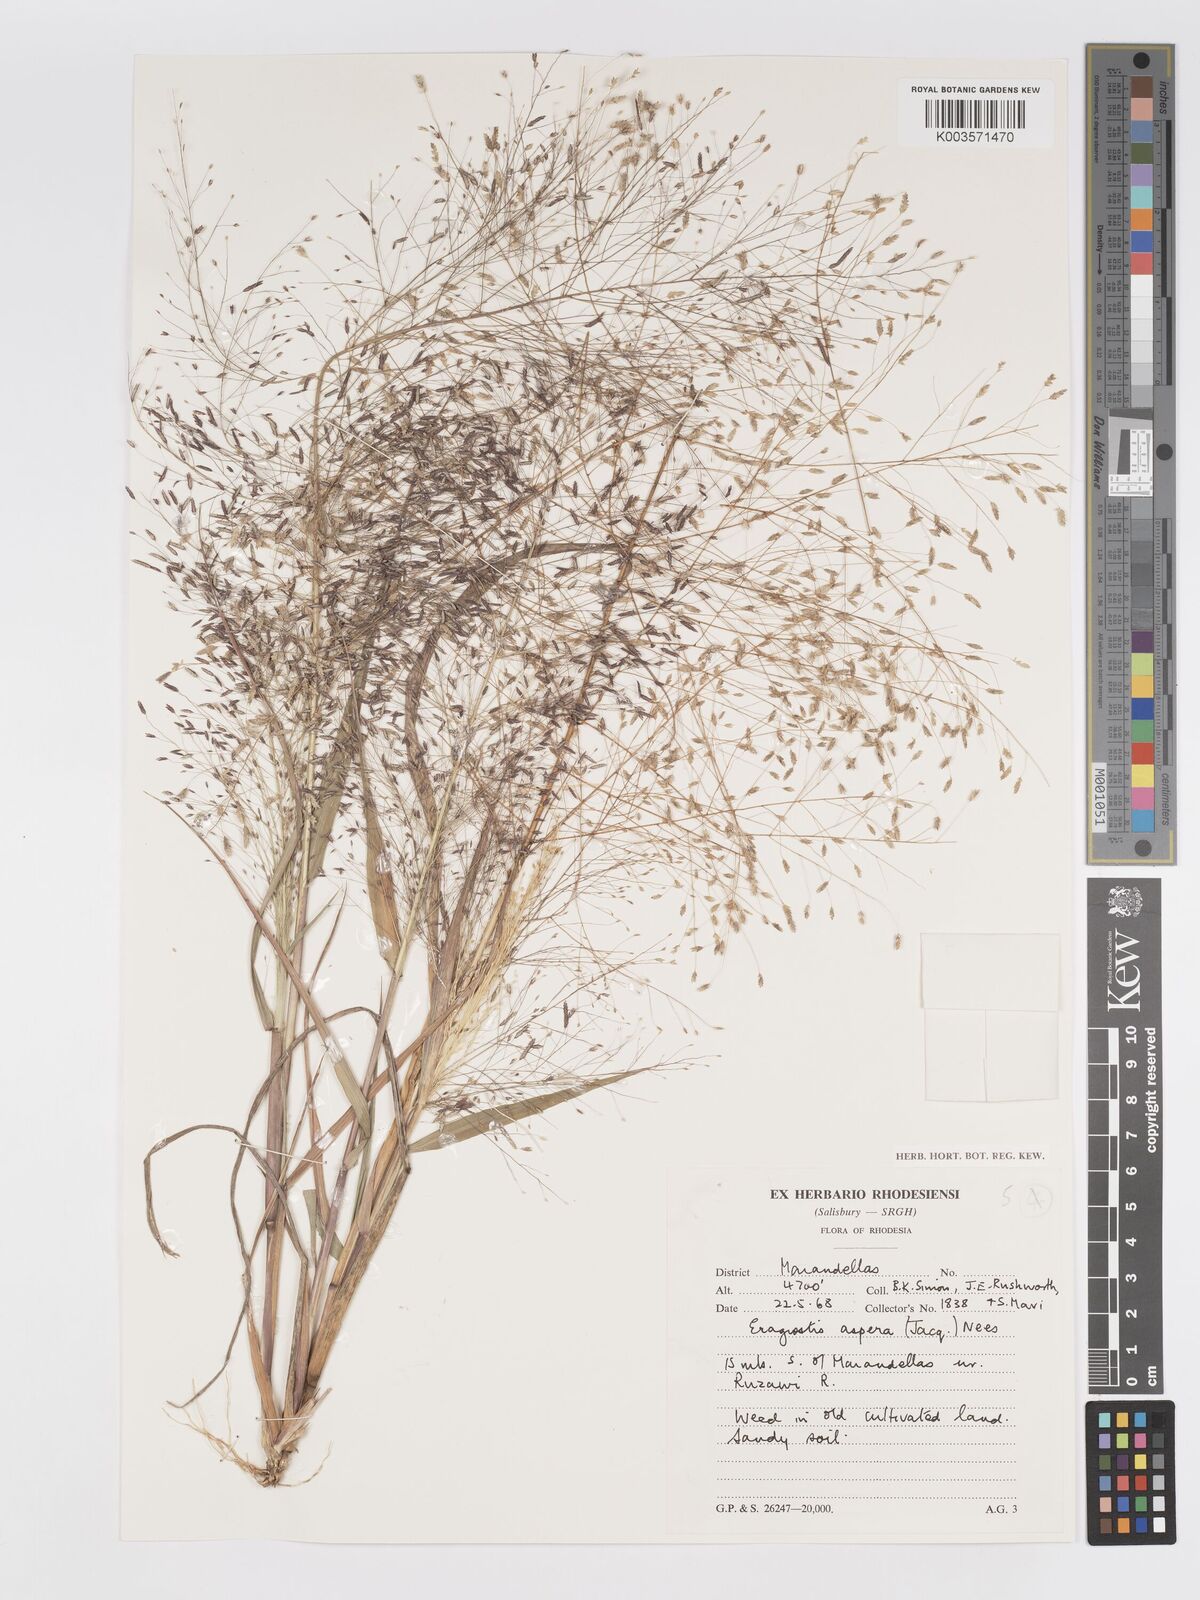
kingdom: Plantae
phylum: Tracheophyta
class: Liliopsida
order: Poales
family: Poaceae
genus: Eragrostis
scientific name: Eragrostis aspera
